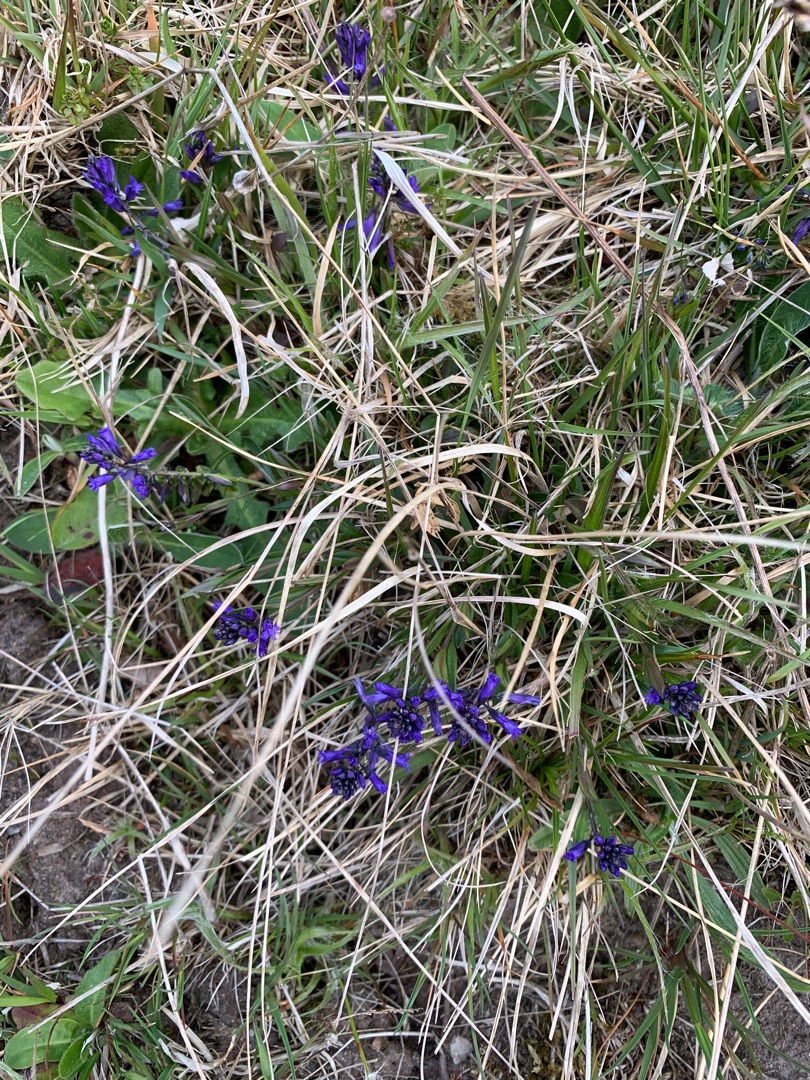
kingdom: Plantae
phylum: Tracheophyta
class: Magnoliopsida
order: Fabales
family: Polygalaceae
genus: Polygala
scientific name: Polygala vulgaris
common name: Almindelig mælkeurt
